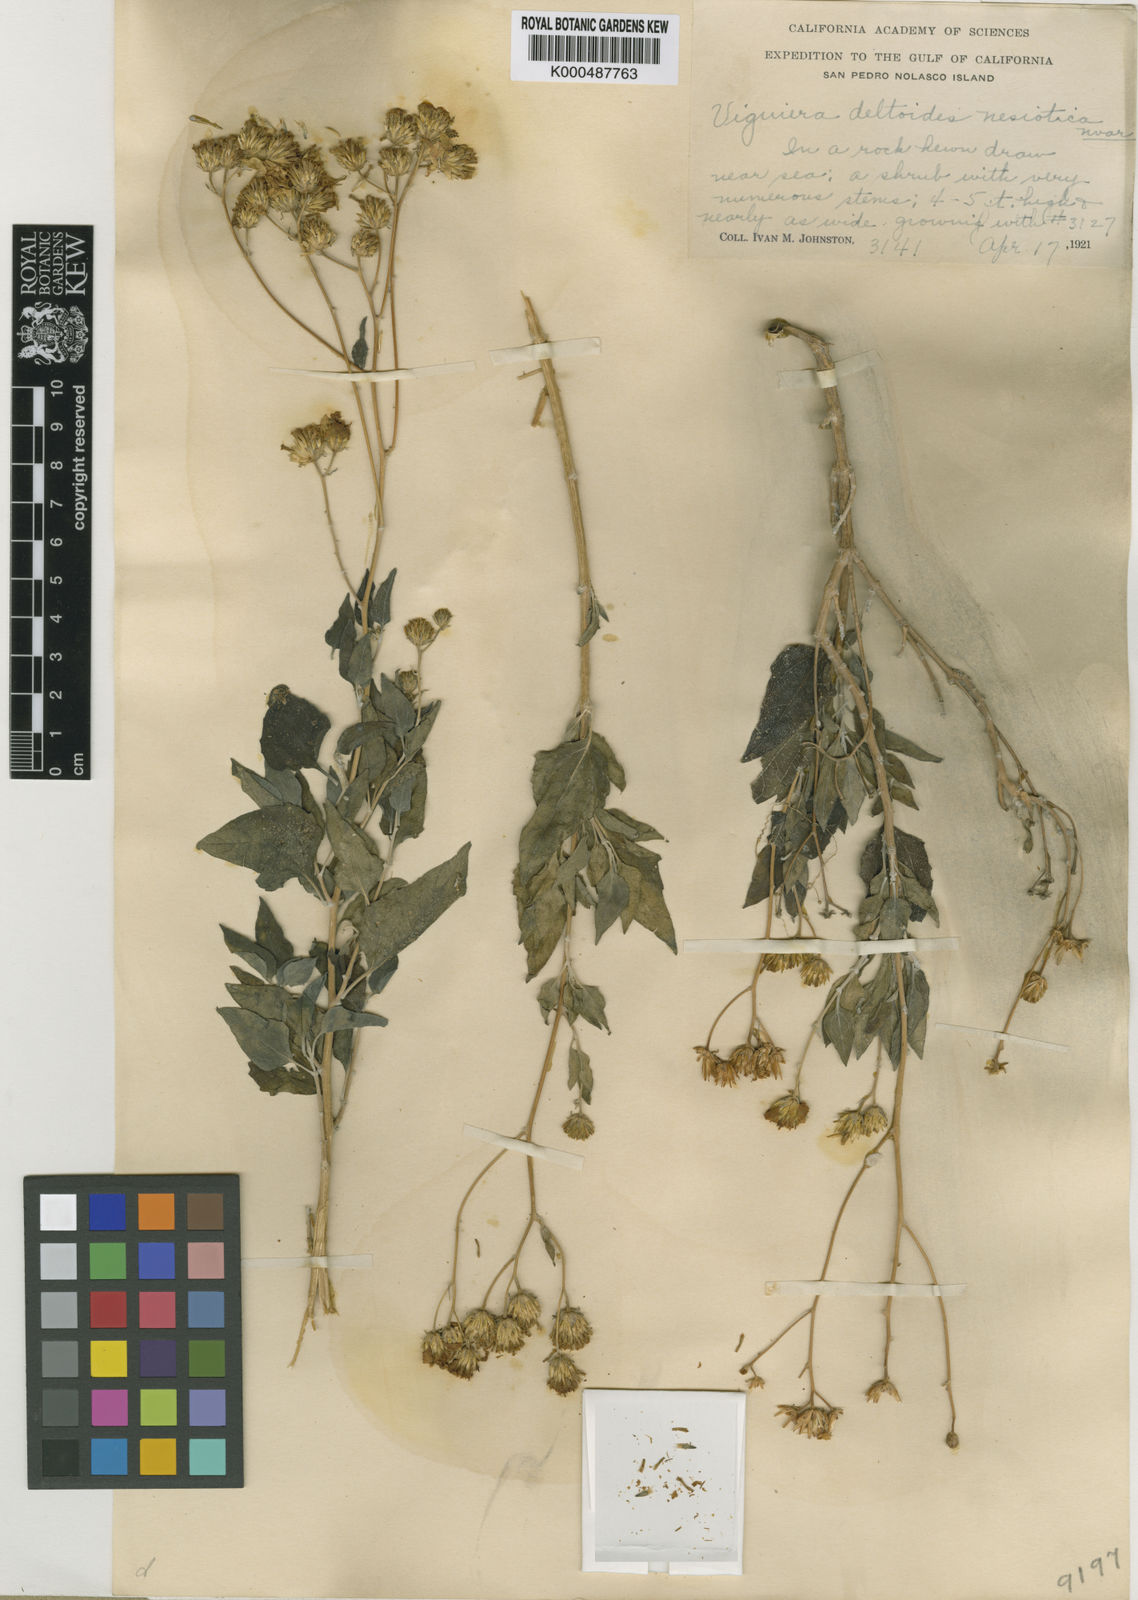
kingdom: Plantae
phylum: Tracheophyta
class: Magnoliopsida
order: Asterales
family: Asteraceae
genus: Viguiera
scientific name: Viguiera
